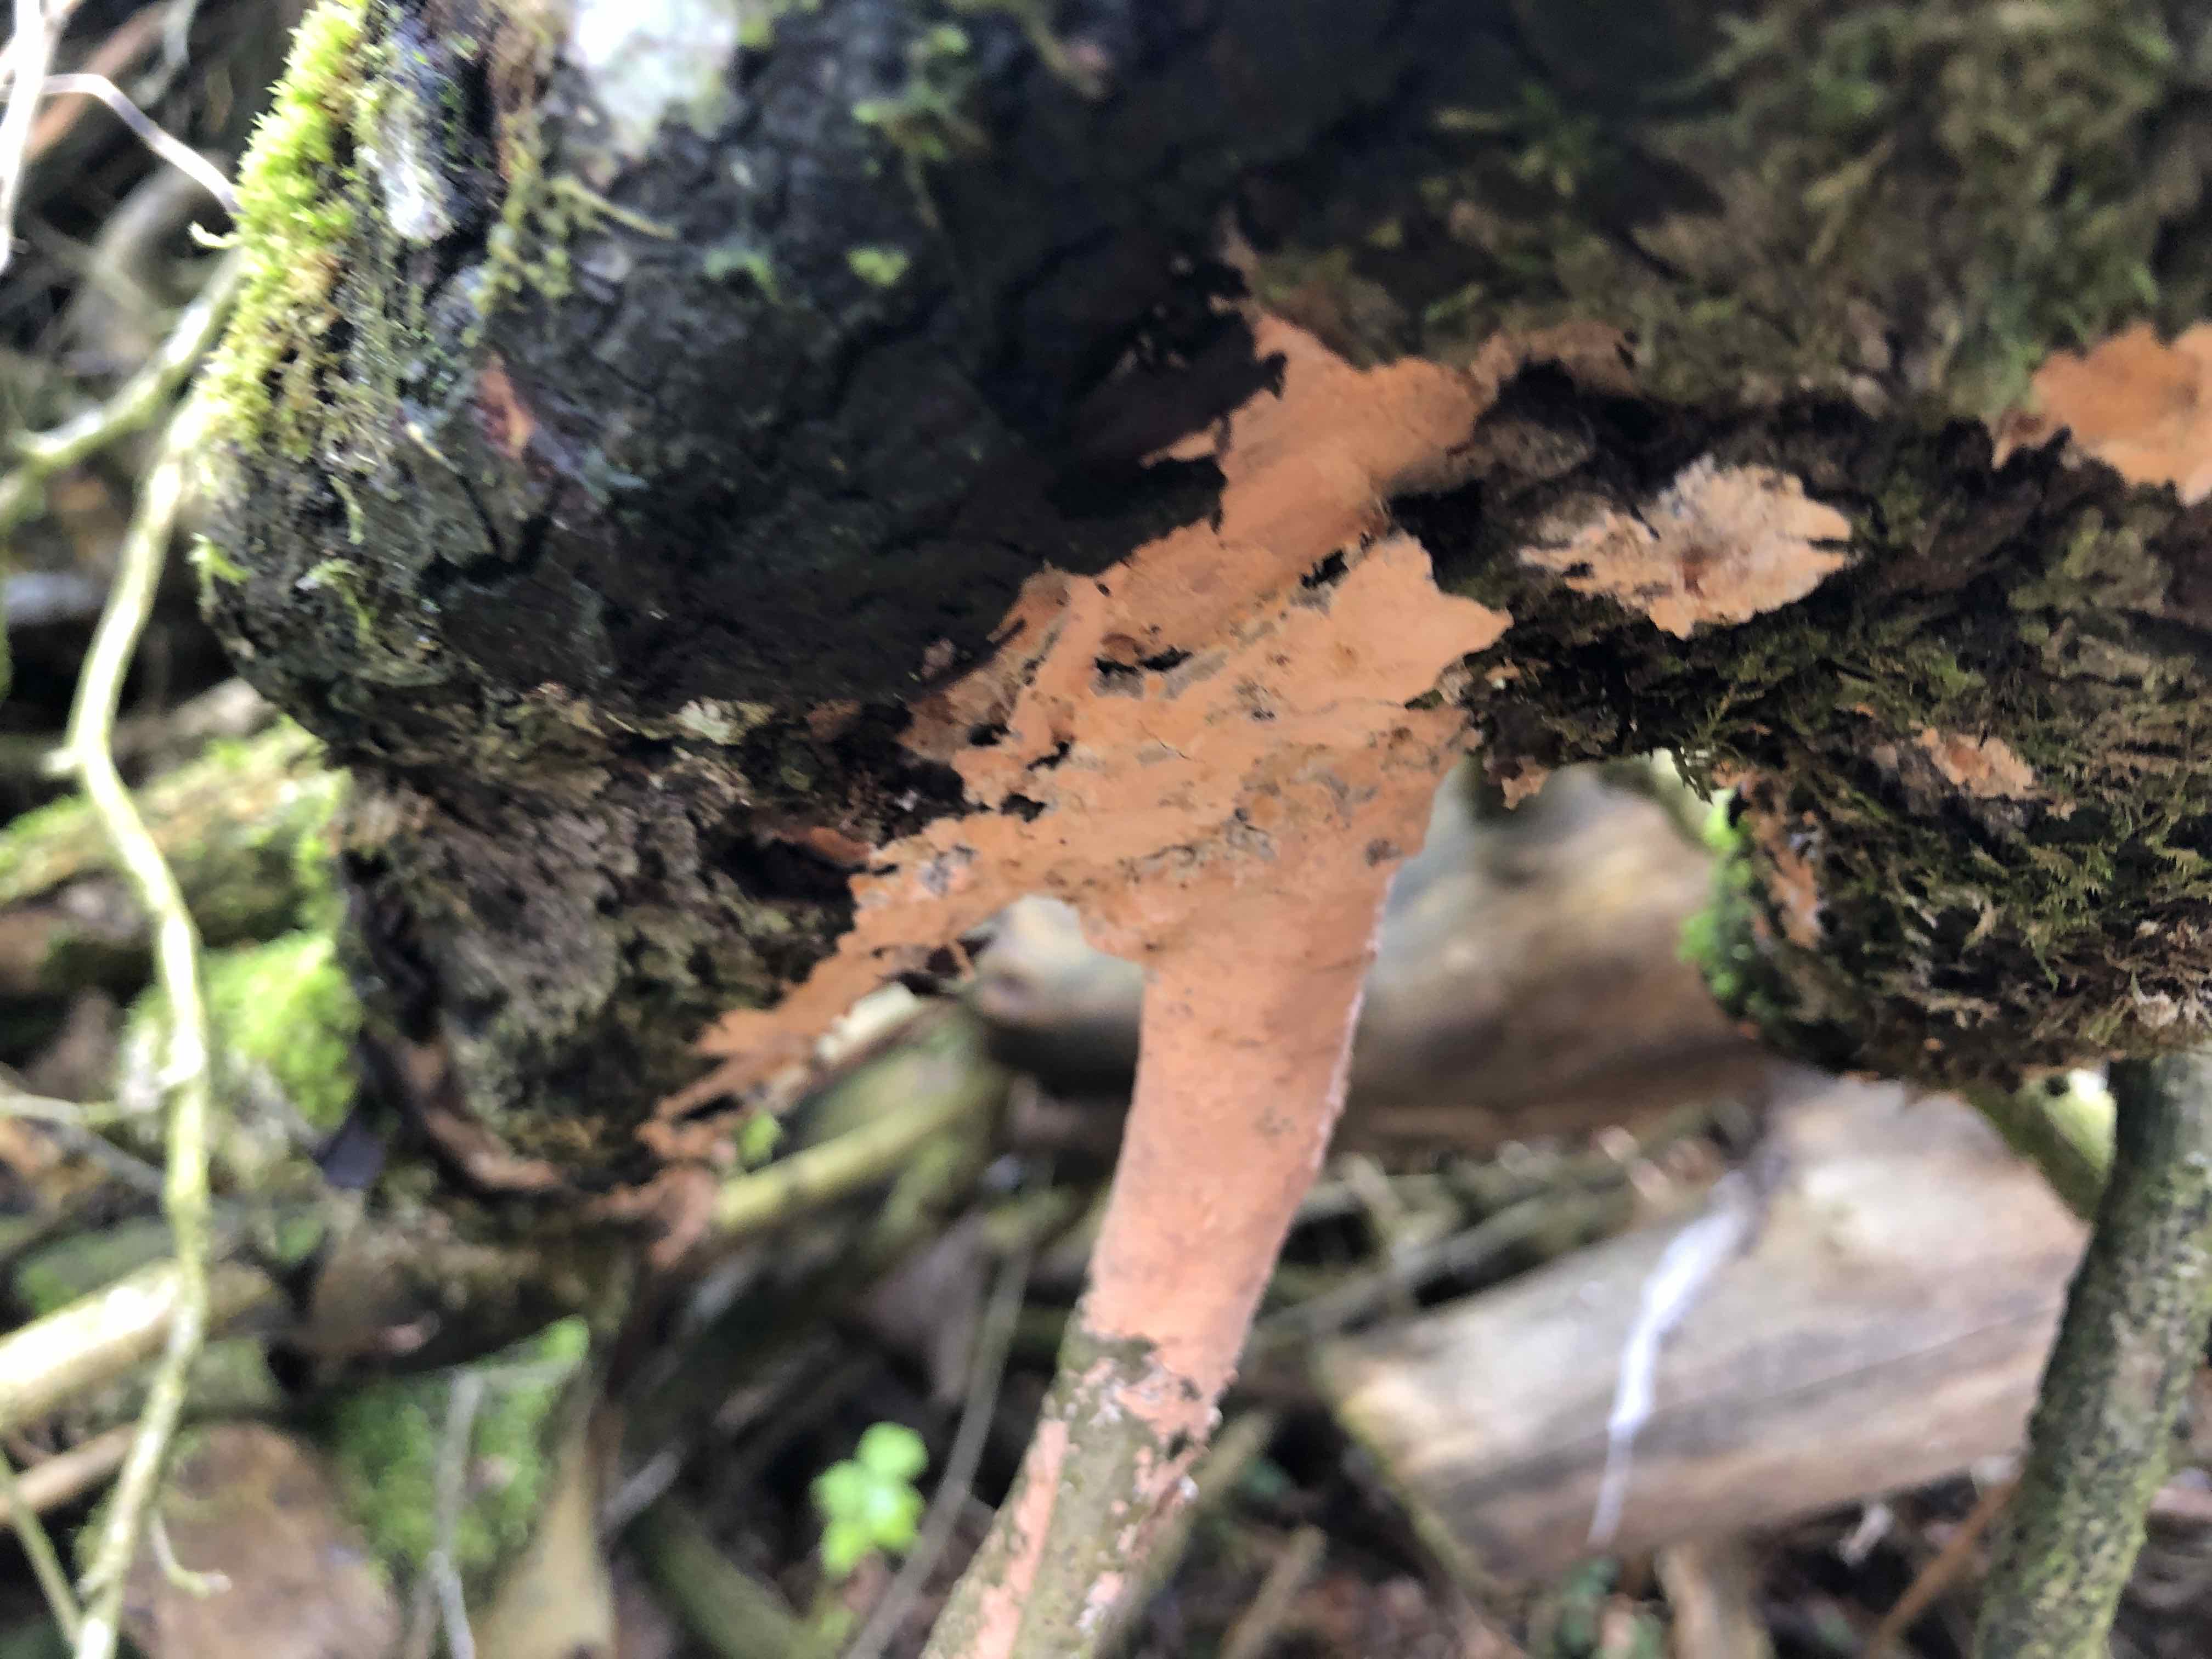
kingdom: Fungi
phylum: Basidiomycota
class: Agaricomycetes
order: Russulales
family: Peniophoraceae
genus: Peniophora
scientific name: Peniophora incarnata
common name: laksefarvet voksskind
